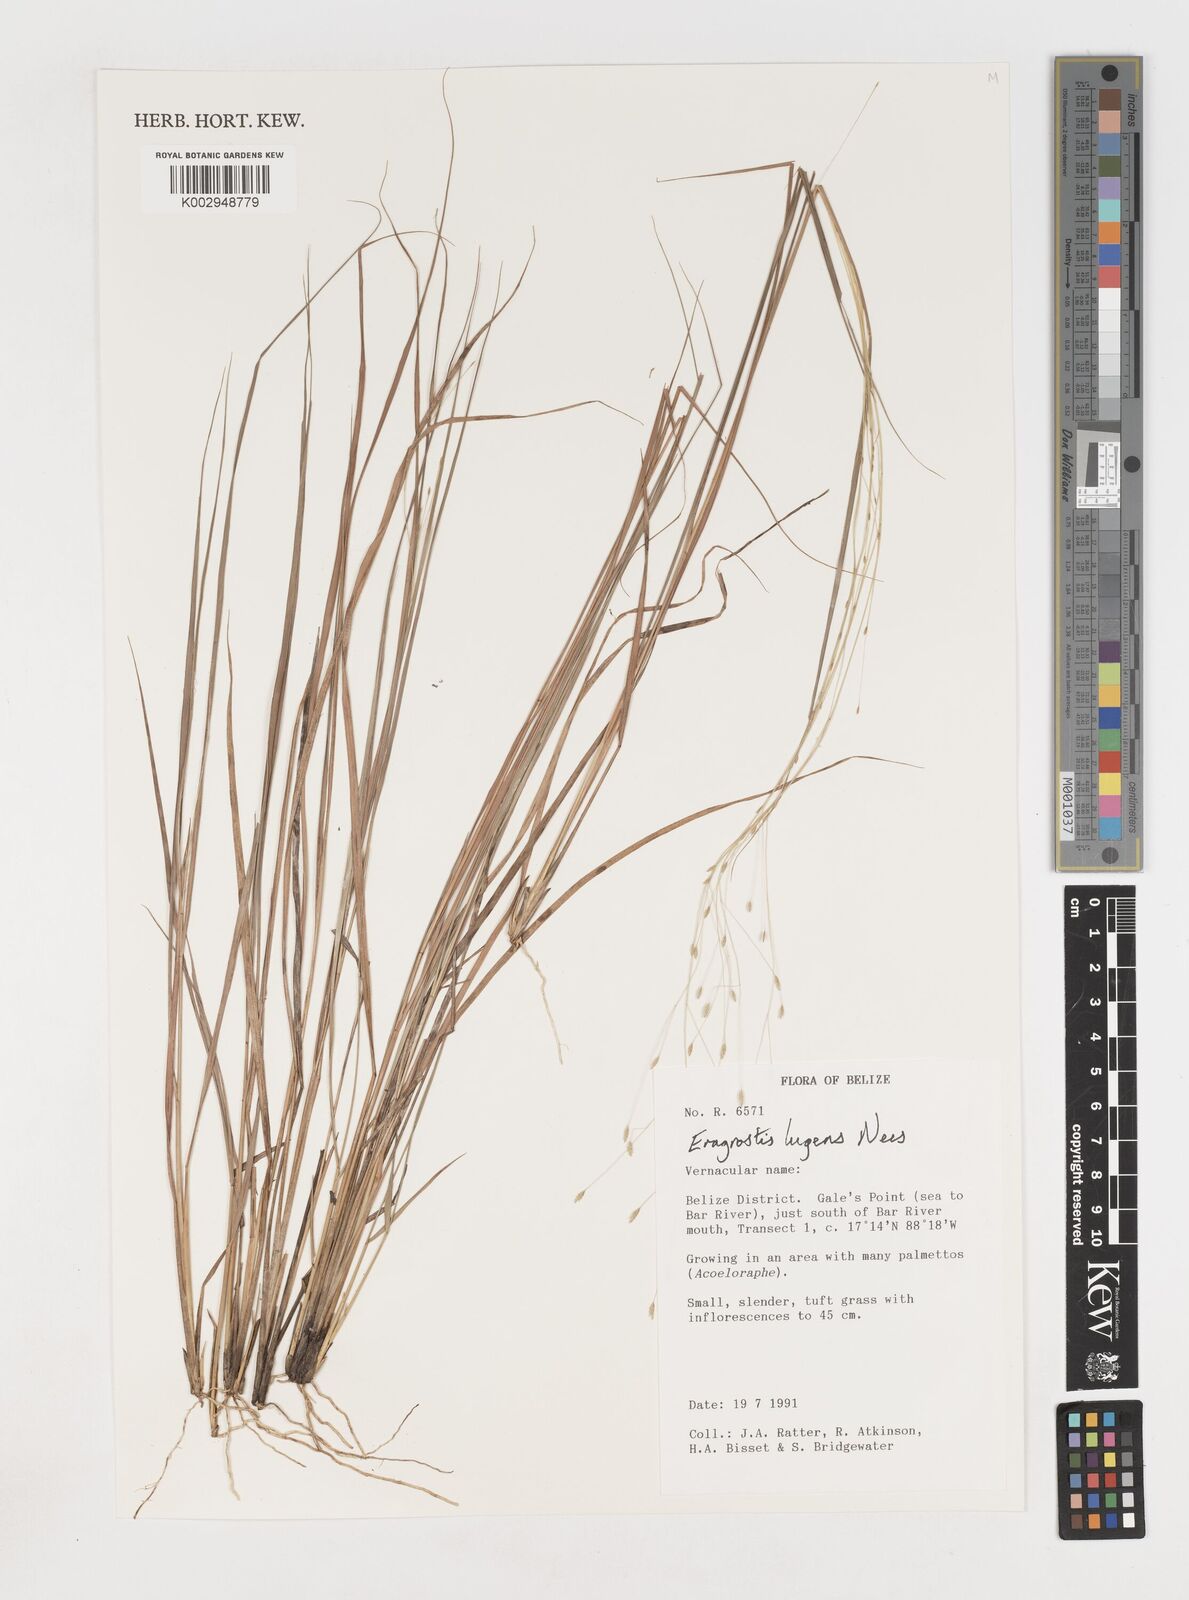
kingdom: Plantae
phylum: Tracheophyta
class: Liliopsida
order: Poales
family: Poaceae
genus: Eragrostis
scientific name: Eragrostis
